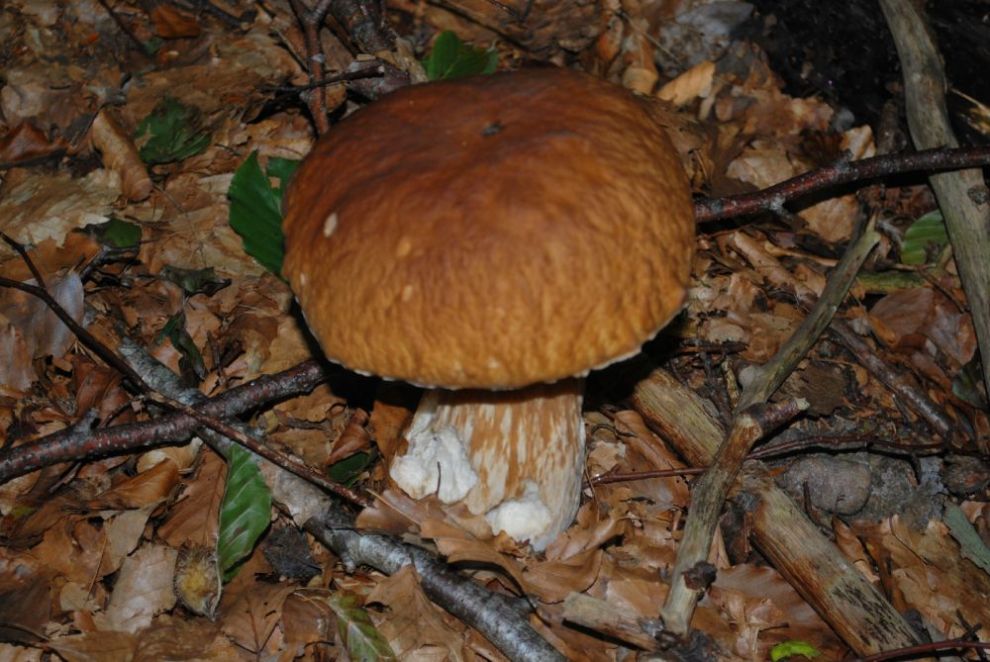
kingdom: Fungi
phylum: Basidiomycota
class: Agaricomycetes
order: Boletales
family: Boletaceae
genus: Boletus
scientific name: Boletus edulis
